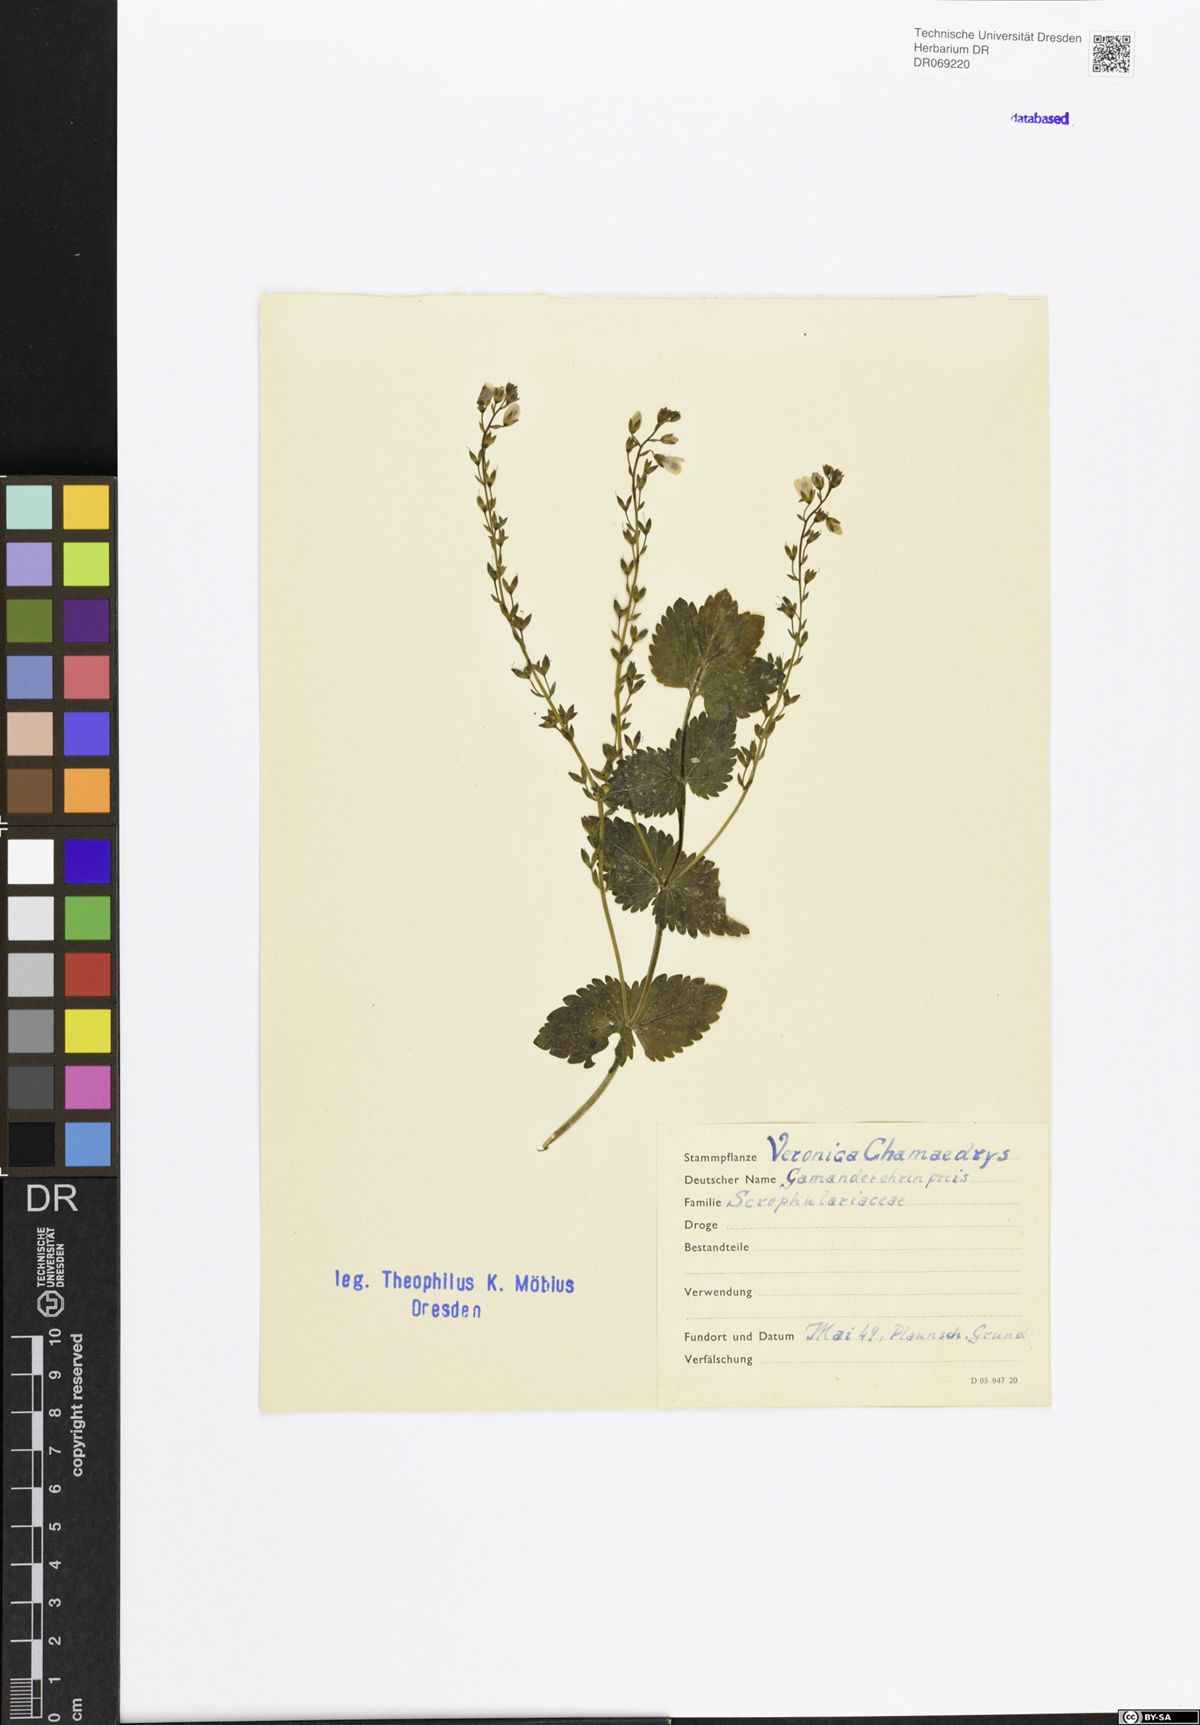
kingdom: Plantae
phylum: Tracheophyta
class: Magnoliopsida
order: Lamiales
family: Plantaginaceae
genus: Veronica
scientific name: Veronica chamaedrys
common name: Germander speedwell
